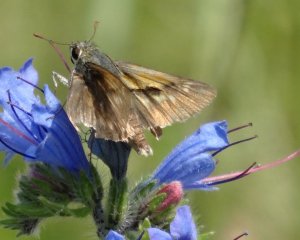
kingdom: Animalia
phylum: Arthropoda
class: Insecta
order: Lepidoptera
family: Hesperiidae
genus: Polites
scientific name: Polites
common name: Crossline Skipper
